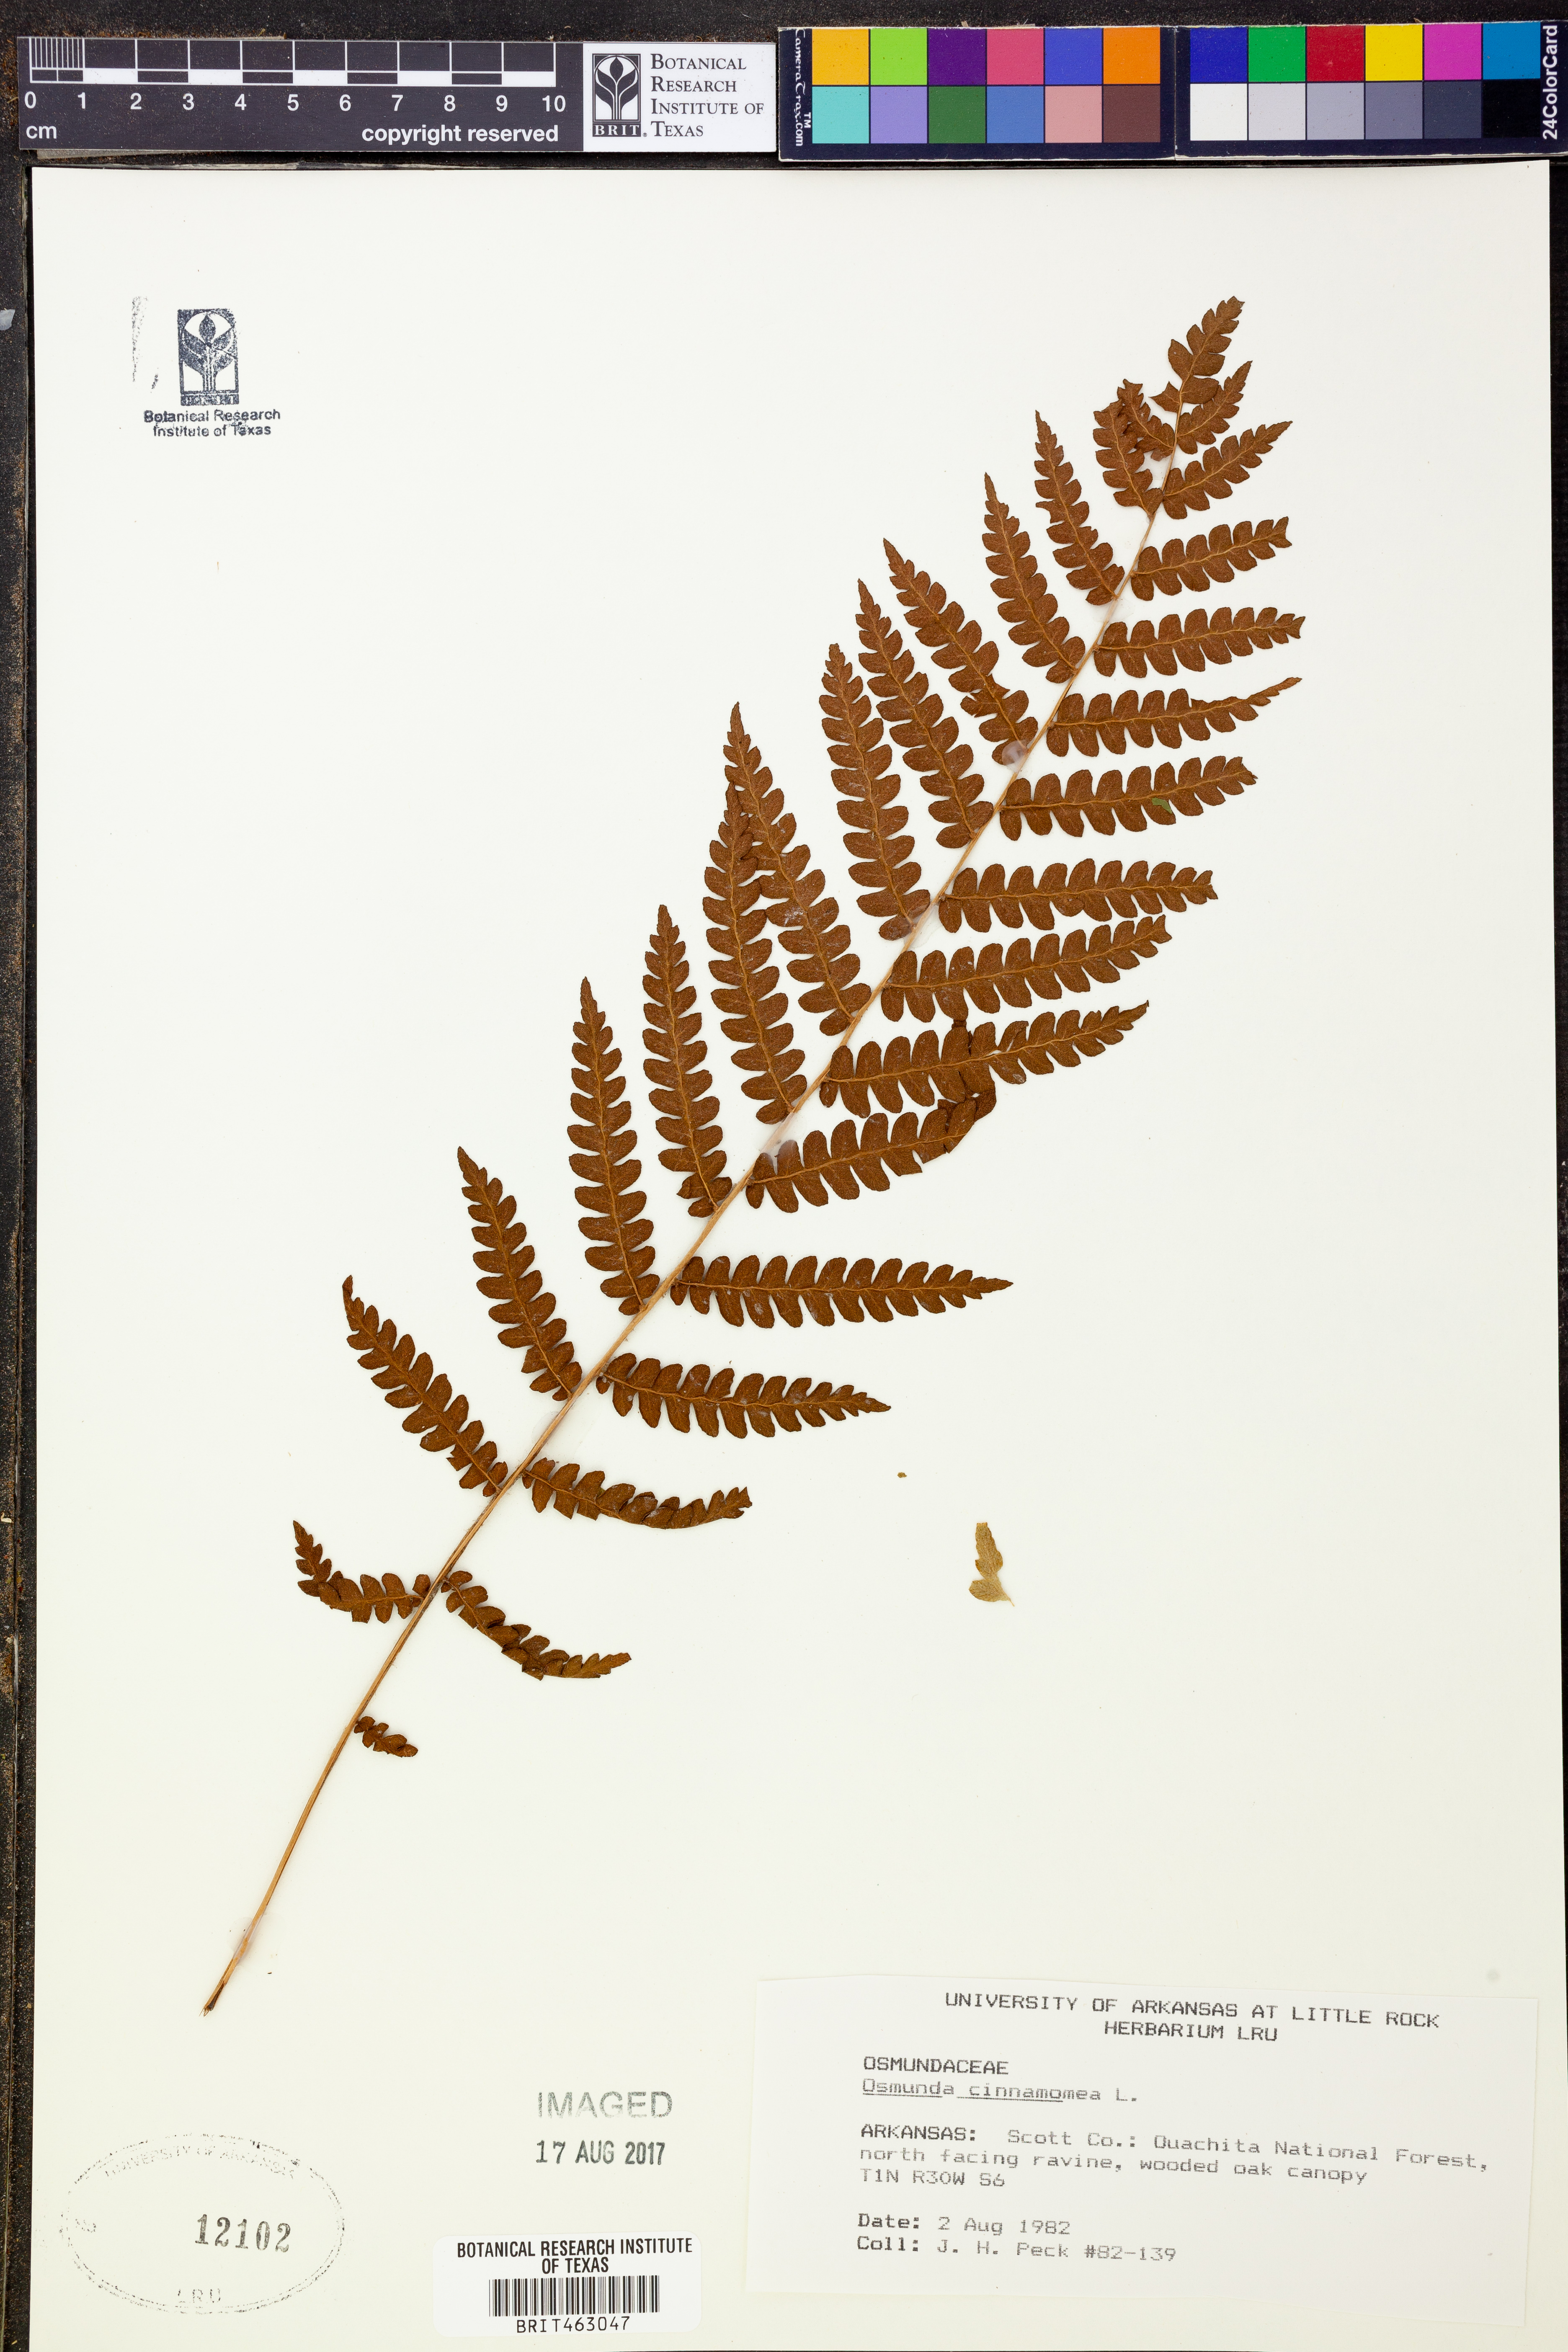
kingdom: Plantae
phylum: Tracheophyta
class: Polypodiopsida
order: Osmundales
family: Osmundaceae
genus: Osmundastrum
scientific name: Osmundastrum cinnamomeum
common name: Cinnamon fern
